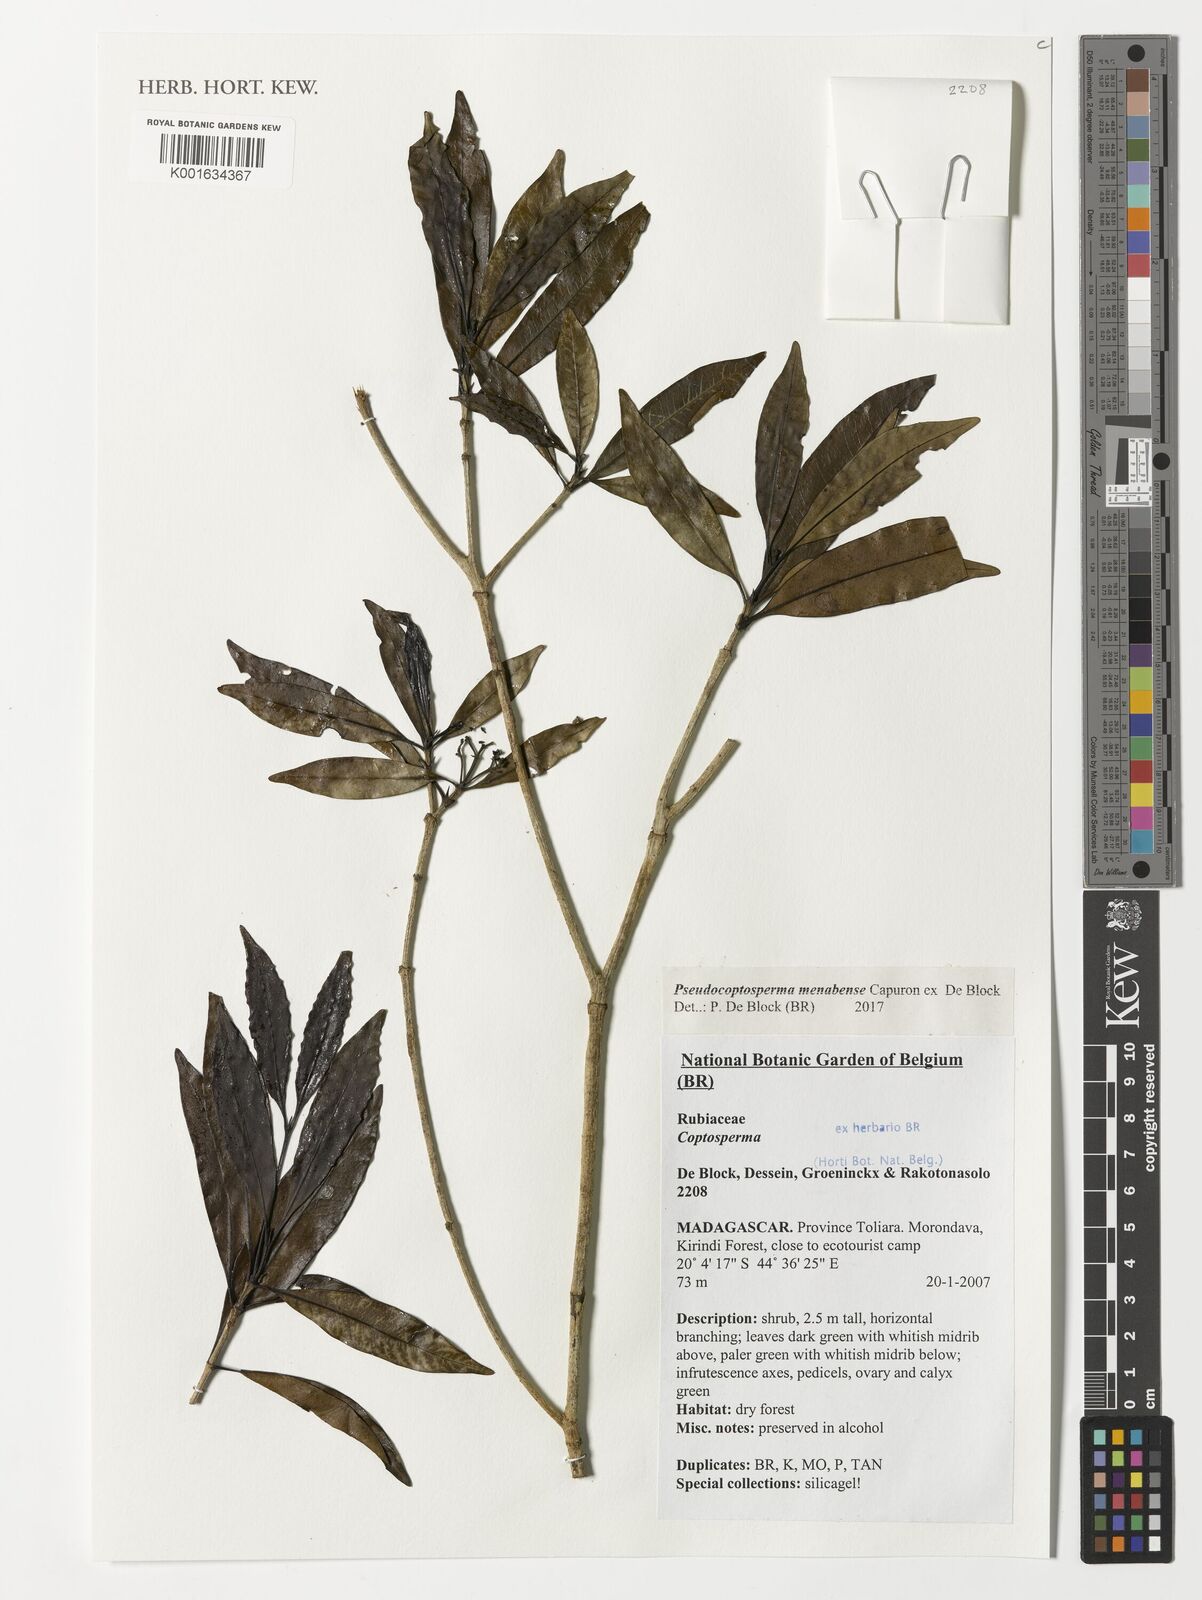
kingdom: Plantae
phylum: Tracheophyta
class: Magnoliopsida
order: Gentianales
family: Rubiaceae
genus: Pseudocoptosperma
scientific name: Pseudocoptosperma menabense
